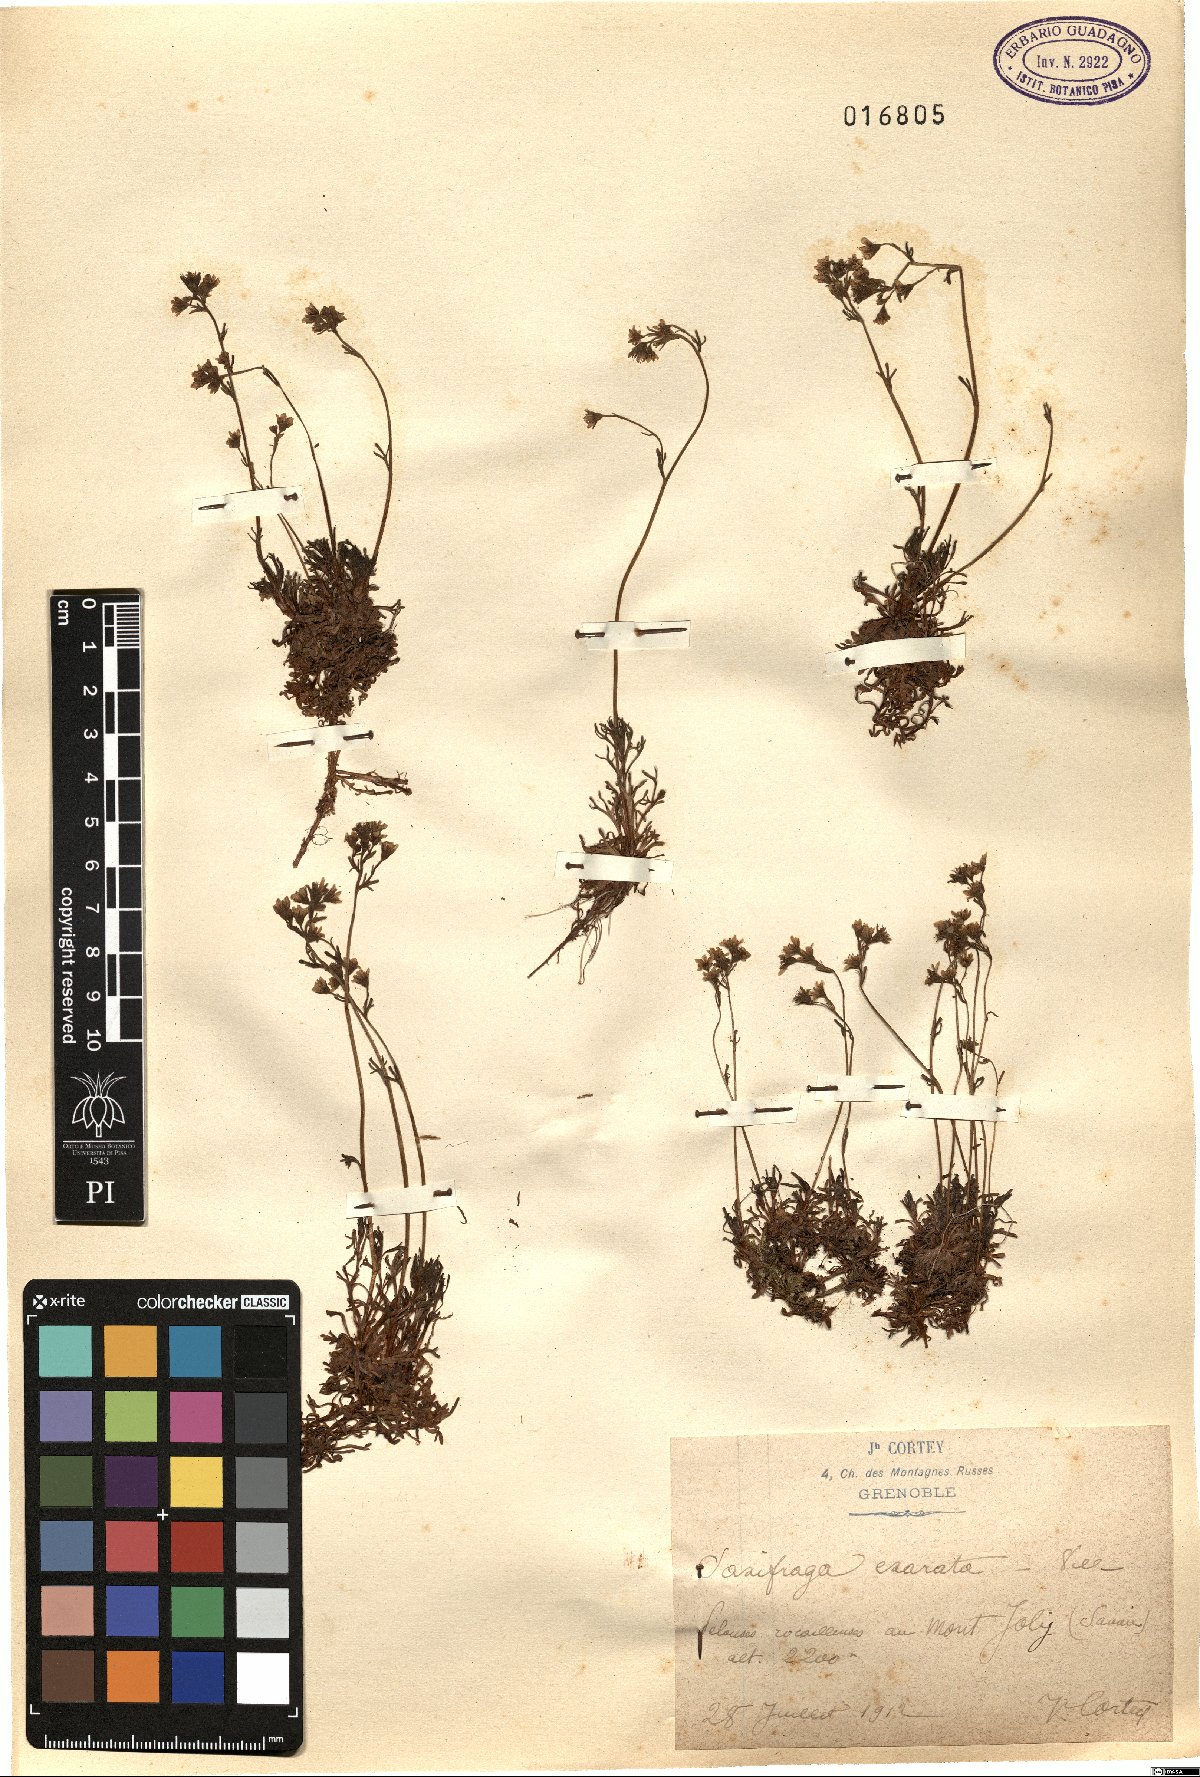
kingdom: Plantae
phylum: Tracheophyta
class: Magnoliopsida
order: Saxifragales
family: Saxifragaceae
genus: Saxifraga
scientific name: Saxifraga exarata
